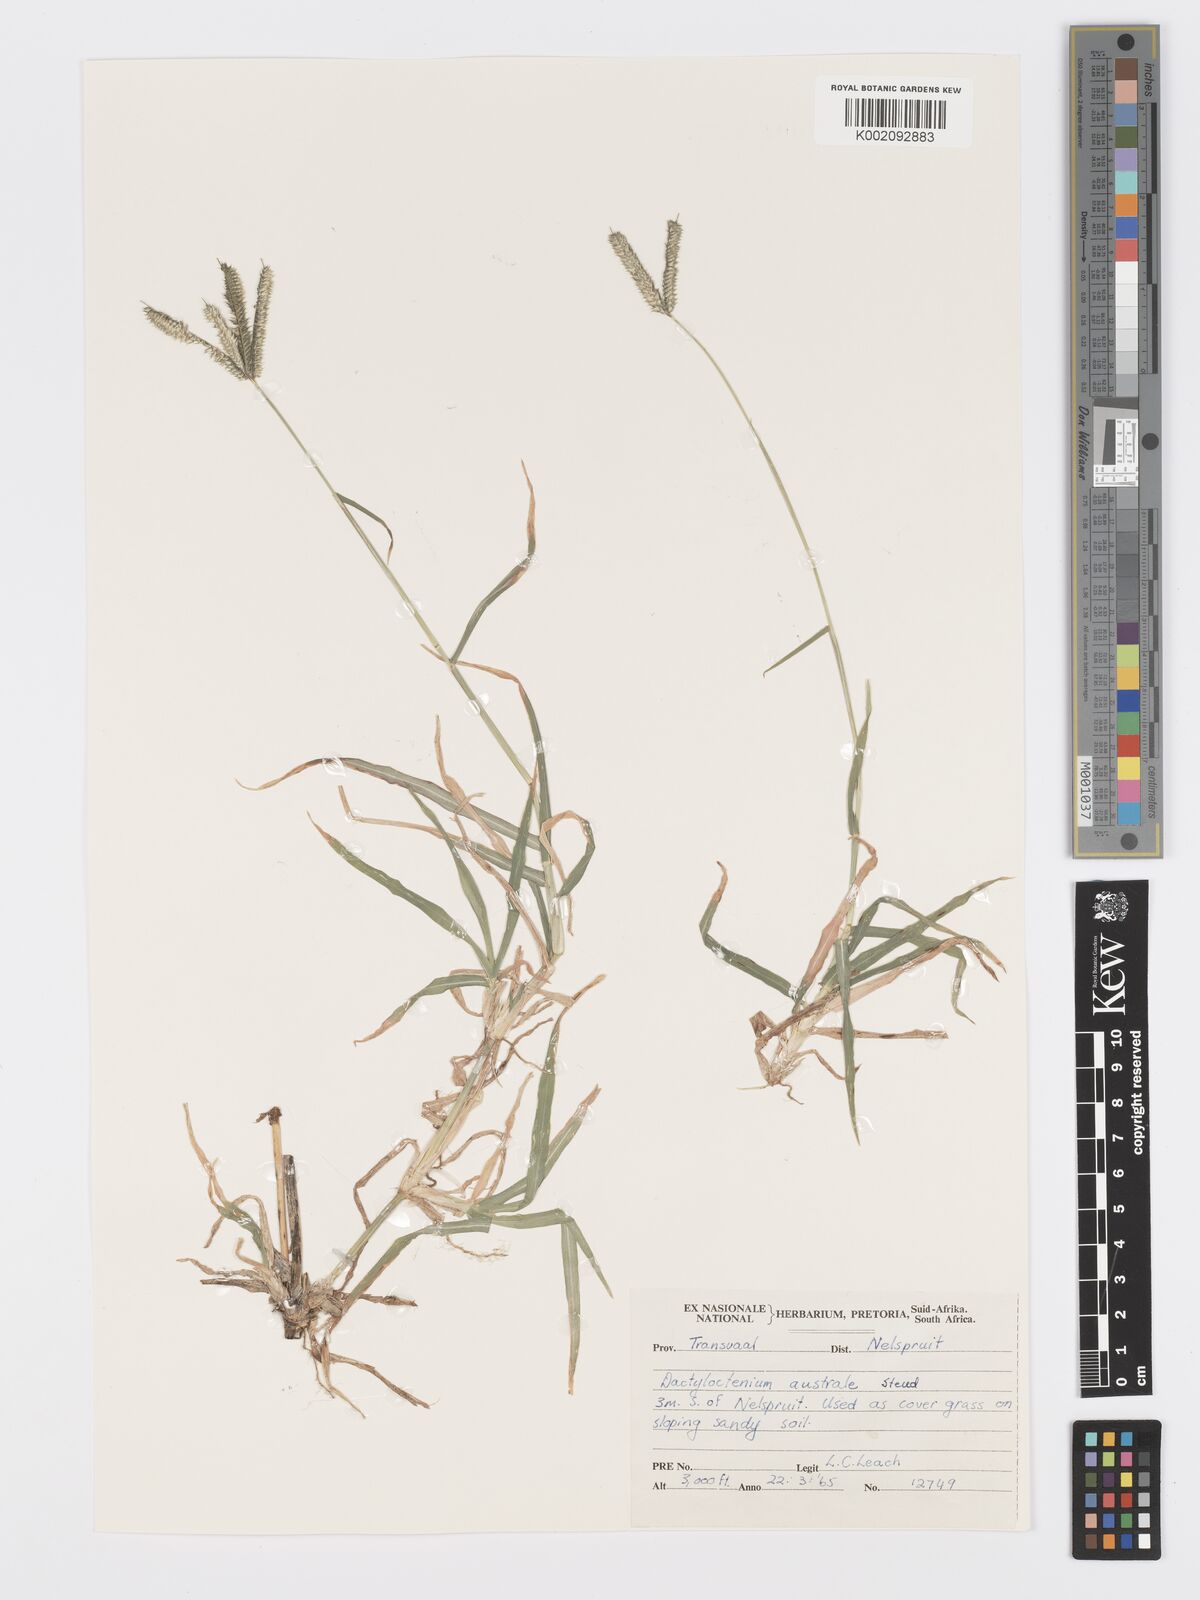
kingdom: Plantae
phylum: Tracheophyta
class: Liliopsida
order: Poales
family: Poaceae
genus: Dactyloctenium
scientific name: Dactyloctenium australe
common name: Durban grass
